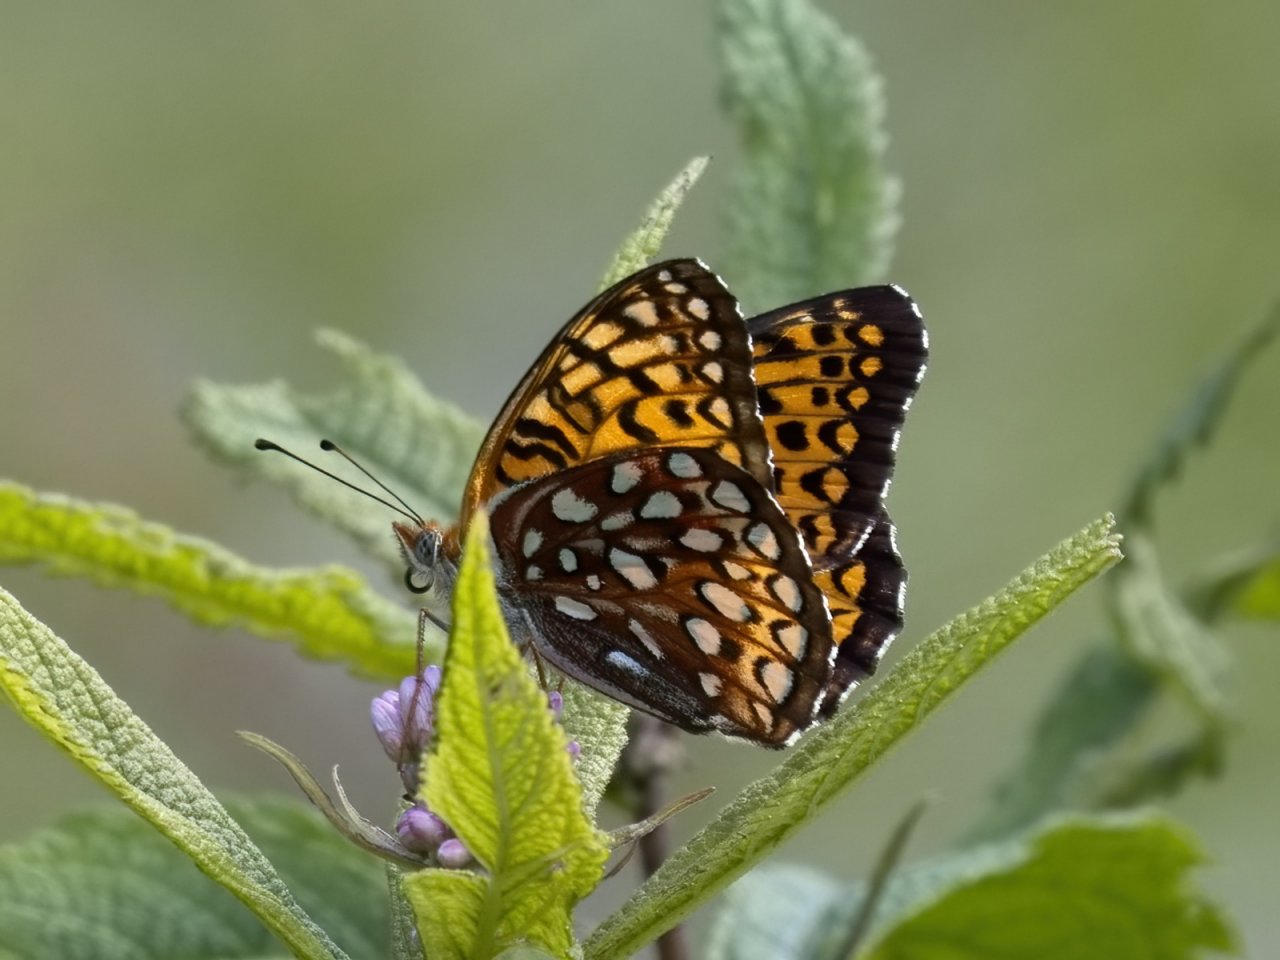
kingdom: Animalia
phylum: Arthropoda
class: Insecta
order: Lepidoptera
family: Nymphalidae
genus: Speyeria
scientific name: Speyeria atlantis
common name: Atlantis Fritillary
